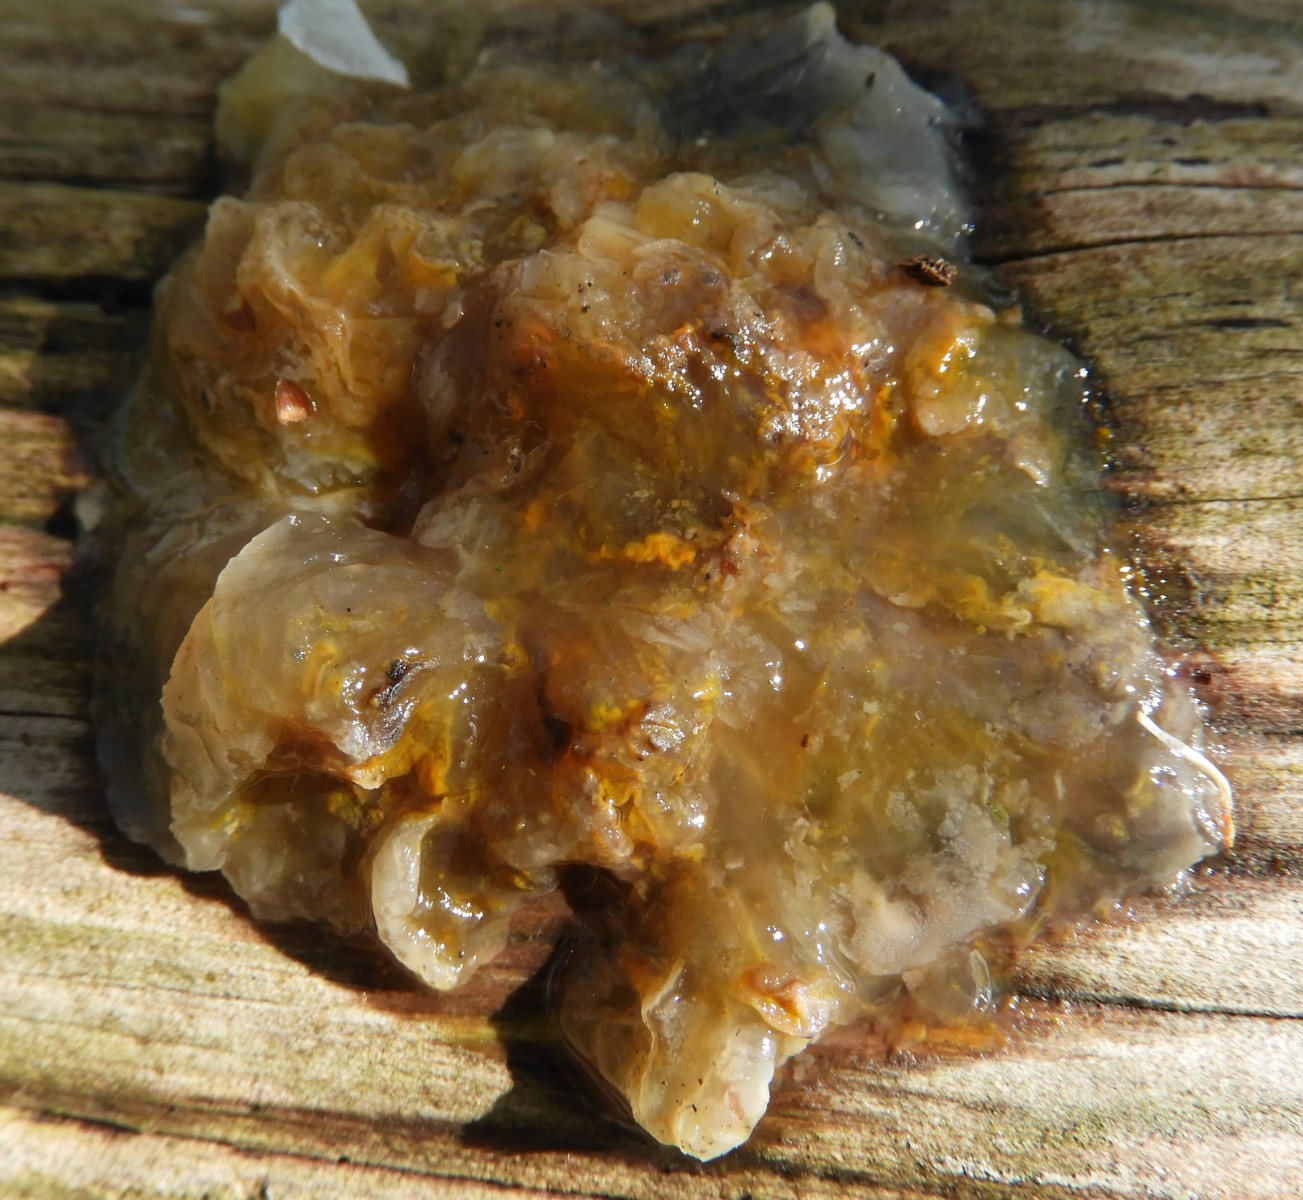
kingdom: Fungi
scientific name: Fungi
